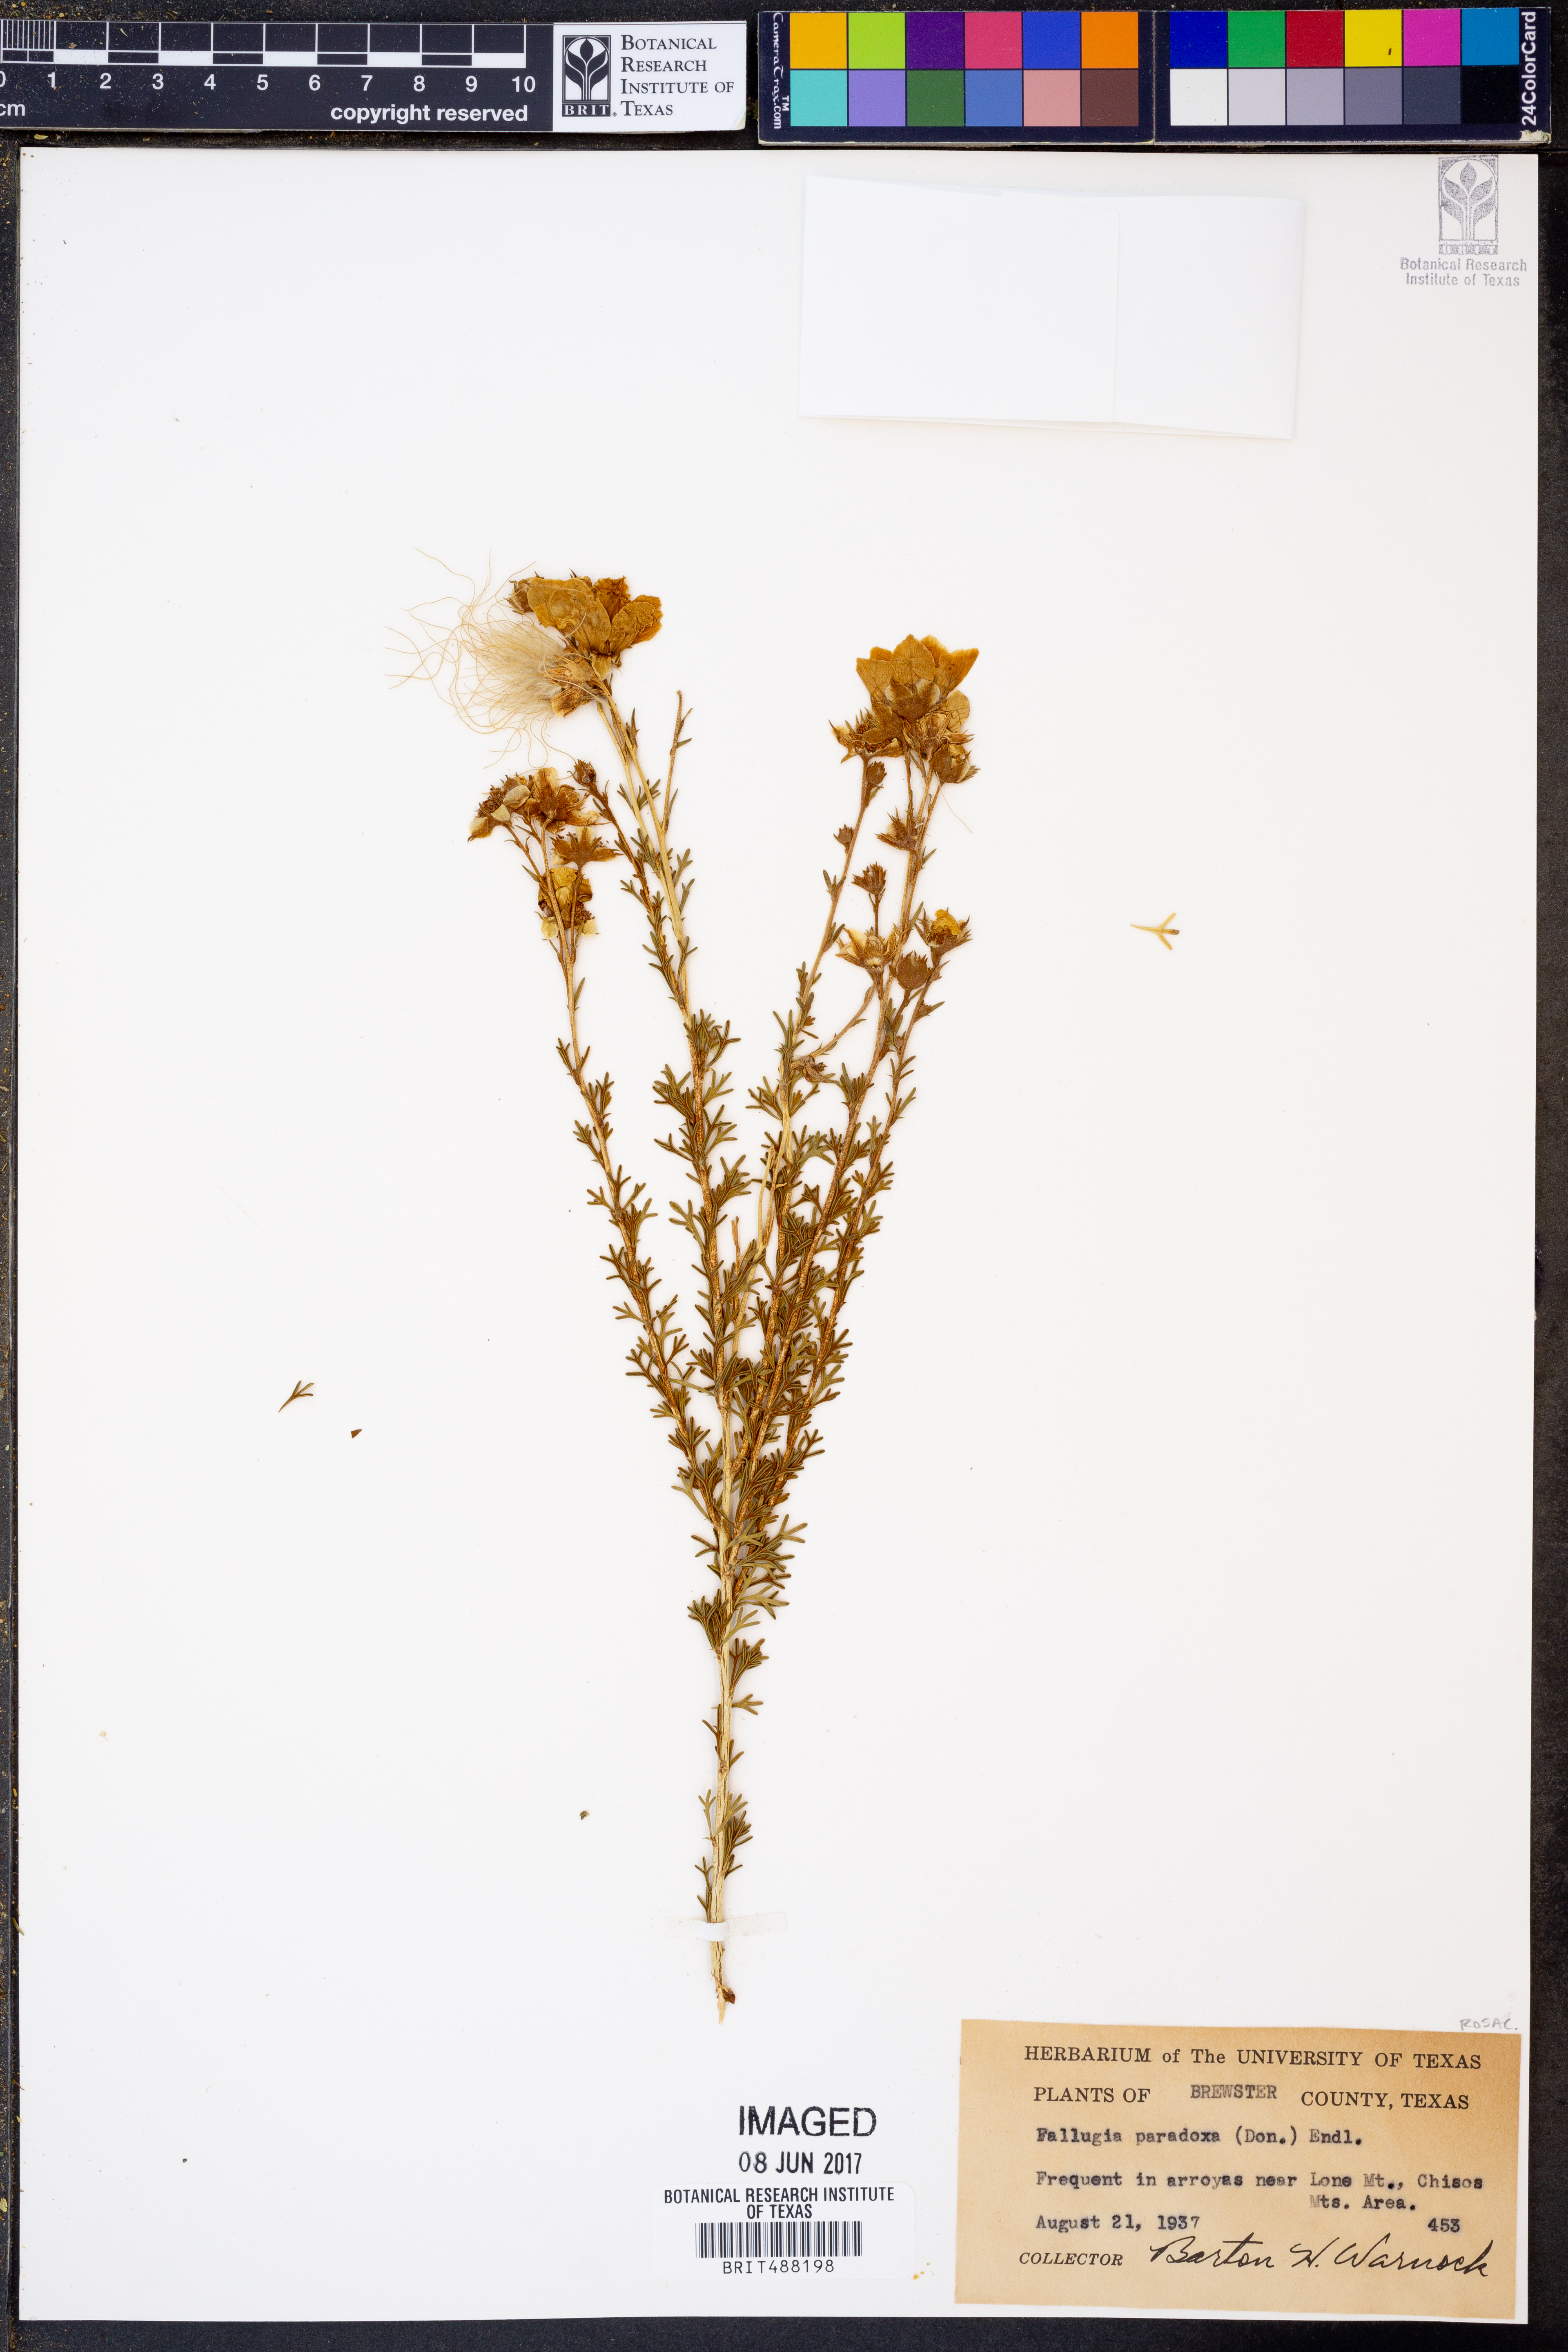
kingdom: Plantae
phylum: Tracheophyta
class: Magnoliopsida
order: Rosales
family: Rosaceae
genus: Fallugia
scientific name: Fallugia paradoxa
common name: Apache-plume
